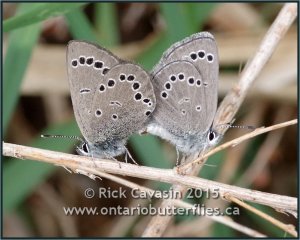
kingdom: Animalia
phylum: Arthropoda
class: Insecta
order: Lepidoptera
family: Lycaenidae
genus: Glaucopsyche
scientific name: Glaucopsyche lygdamus
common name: Silvery Blue
